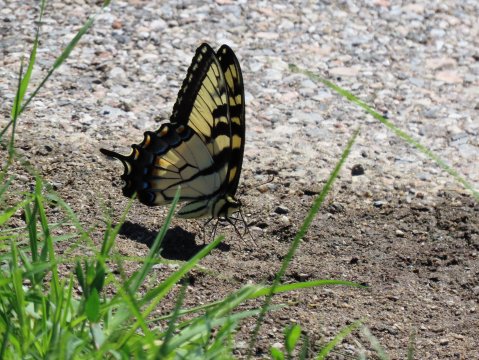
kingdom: Animalia
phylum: Arthropoda
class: Insecta
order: Lepidoptera
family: Papilionidae
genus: Pterourus
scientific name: Pterourus glaucus
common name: Eastern Tiger Swallowtail
